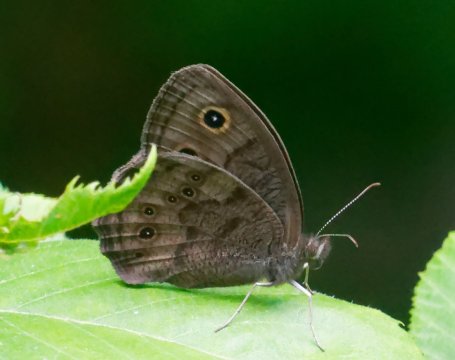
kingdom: Animalia
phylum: Arthropoda
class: Insecta
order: Lepidoptera
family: Nymphalidae
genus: Cercyonis
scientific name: Cercyonis pegala
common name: Common Wood-Nymph
